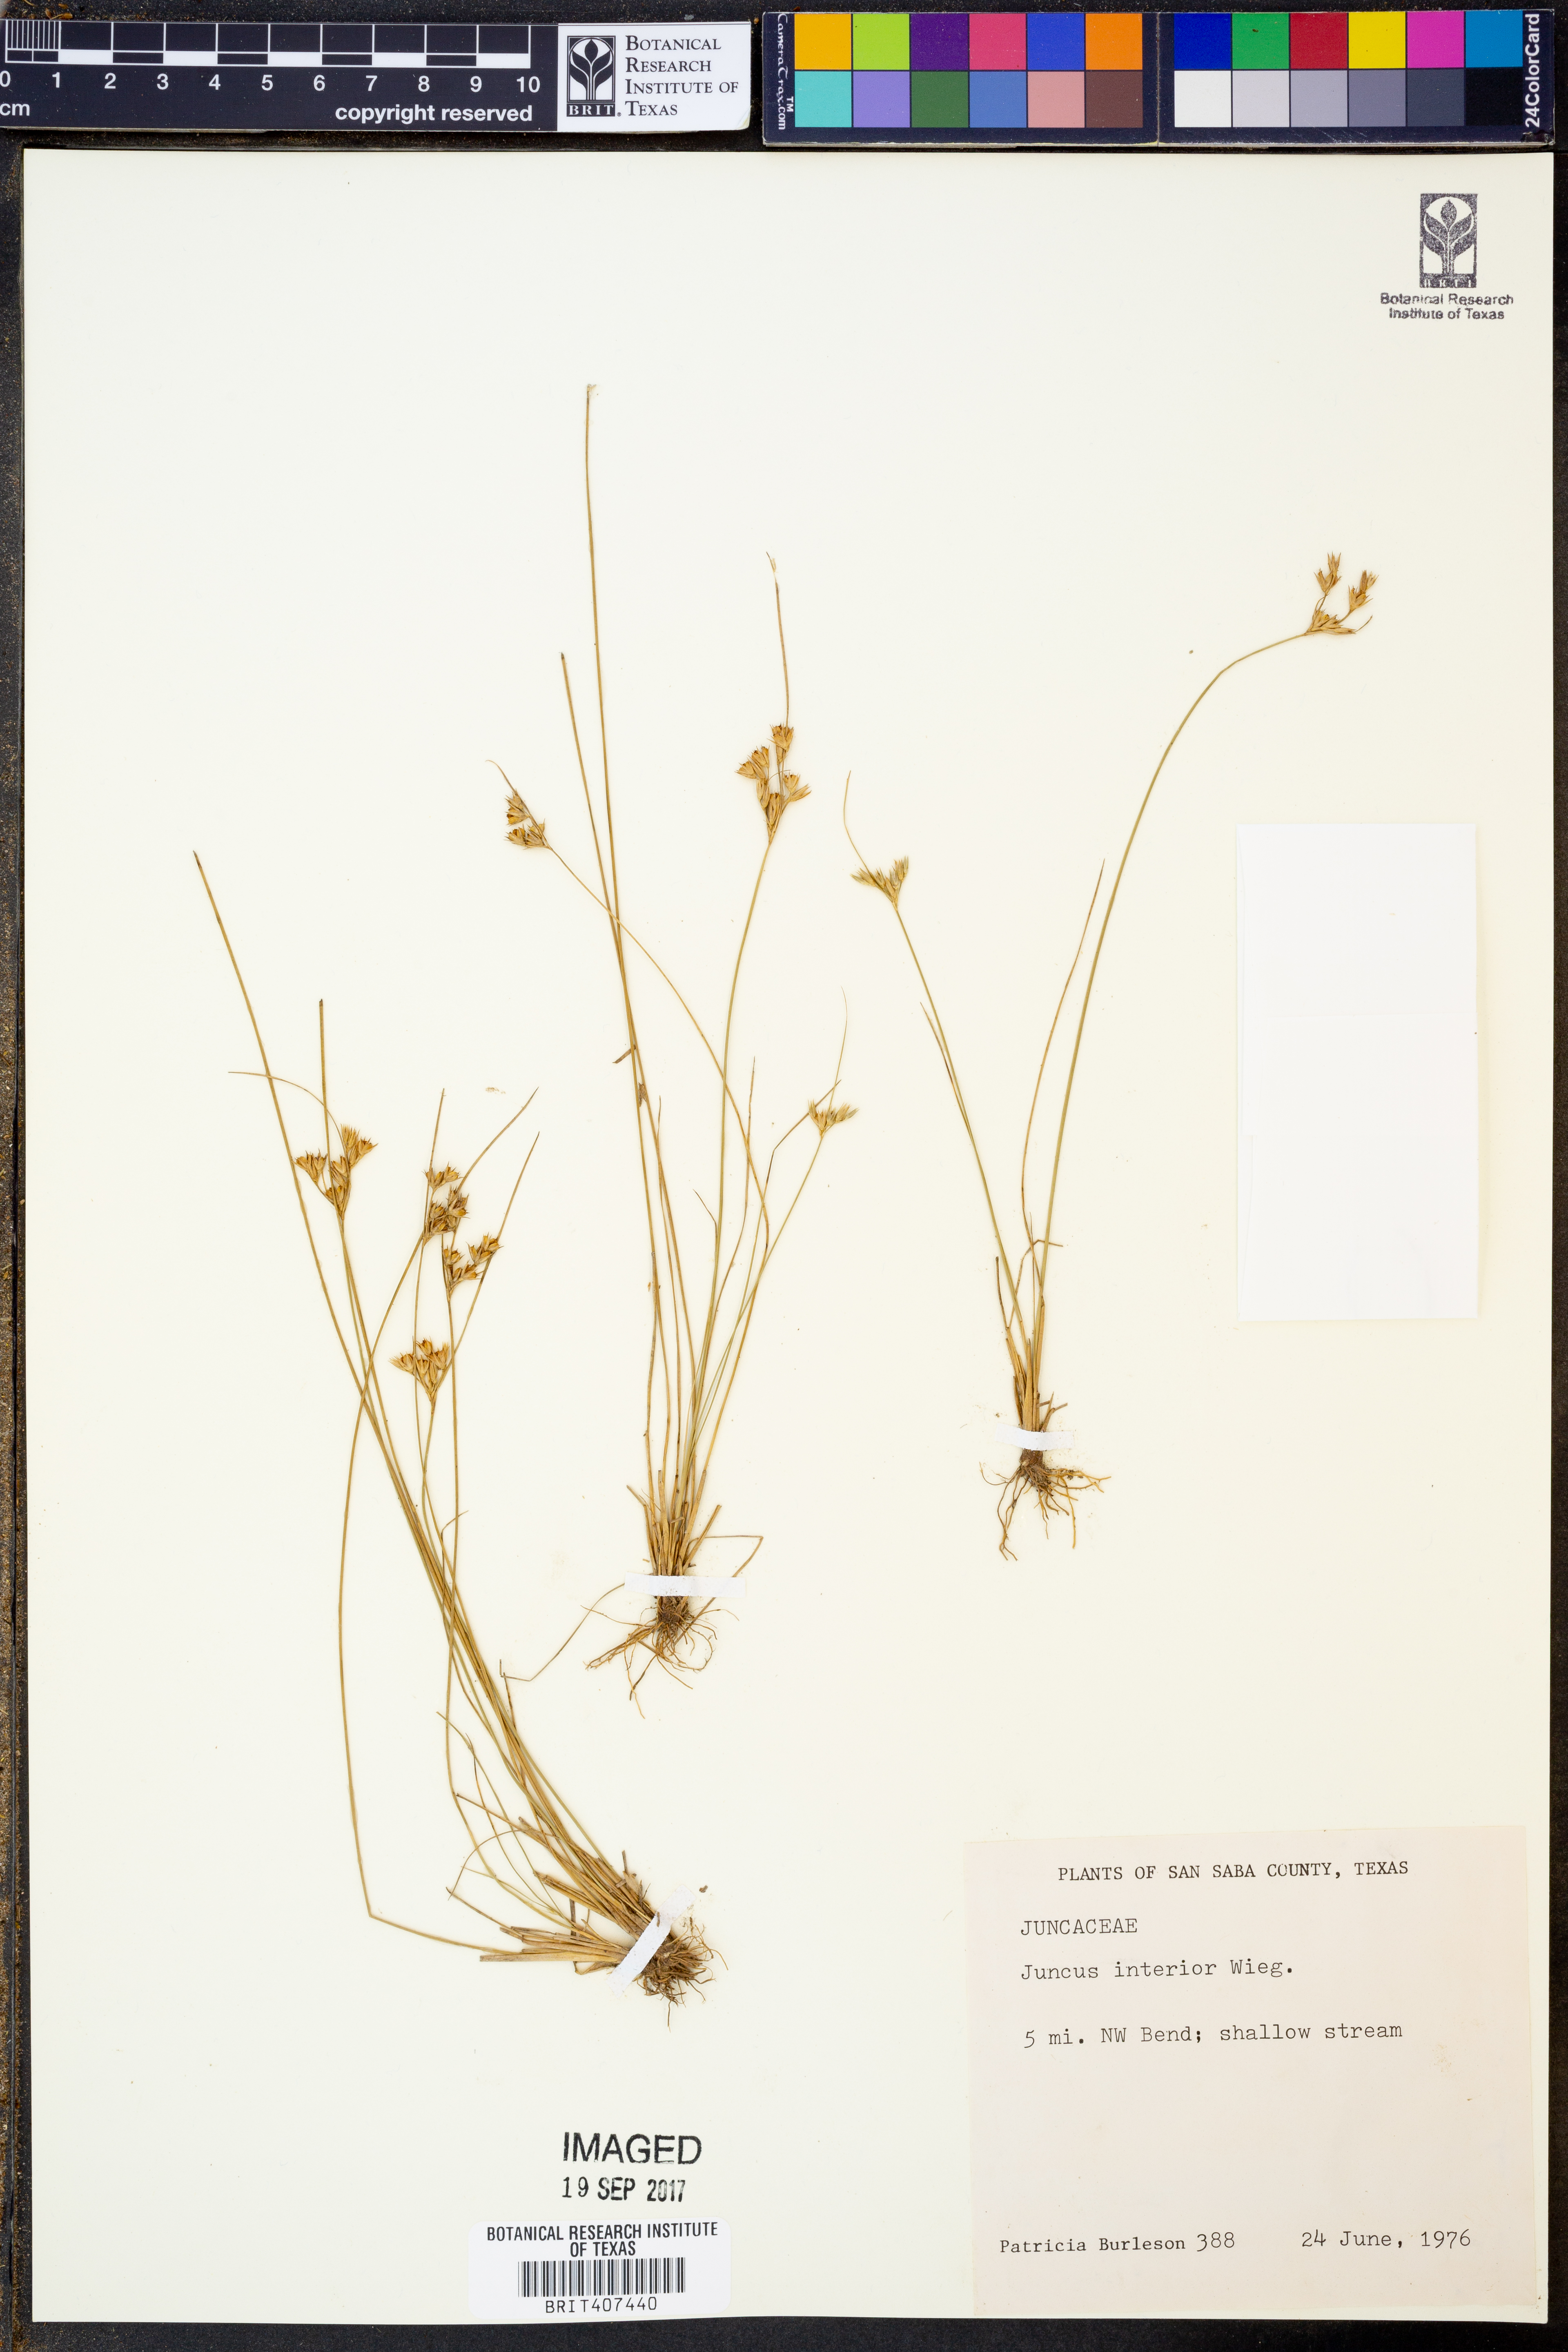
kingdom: Plantae
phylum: Tracheophyta
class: Liliopsida
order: Poales
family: Juncaceae
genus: Juncus
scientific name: Juncus interior
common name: Interior rush
